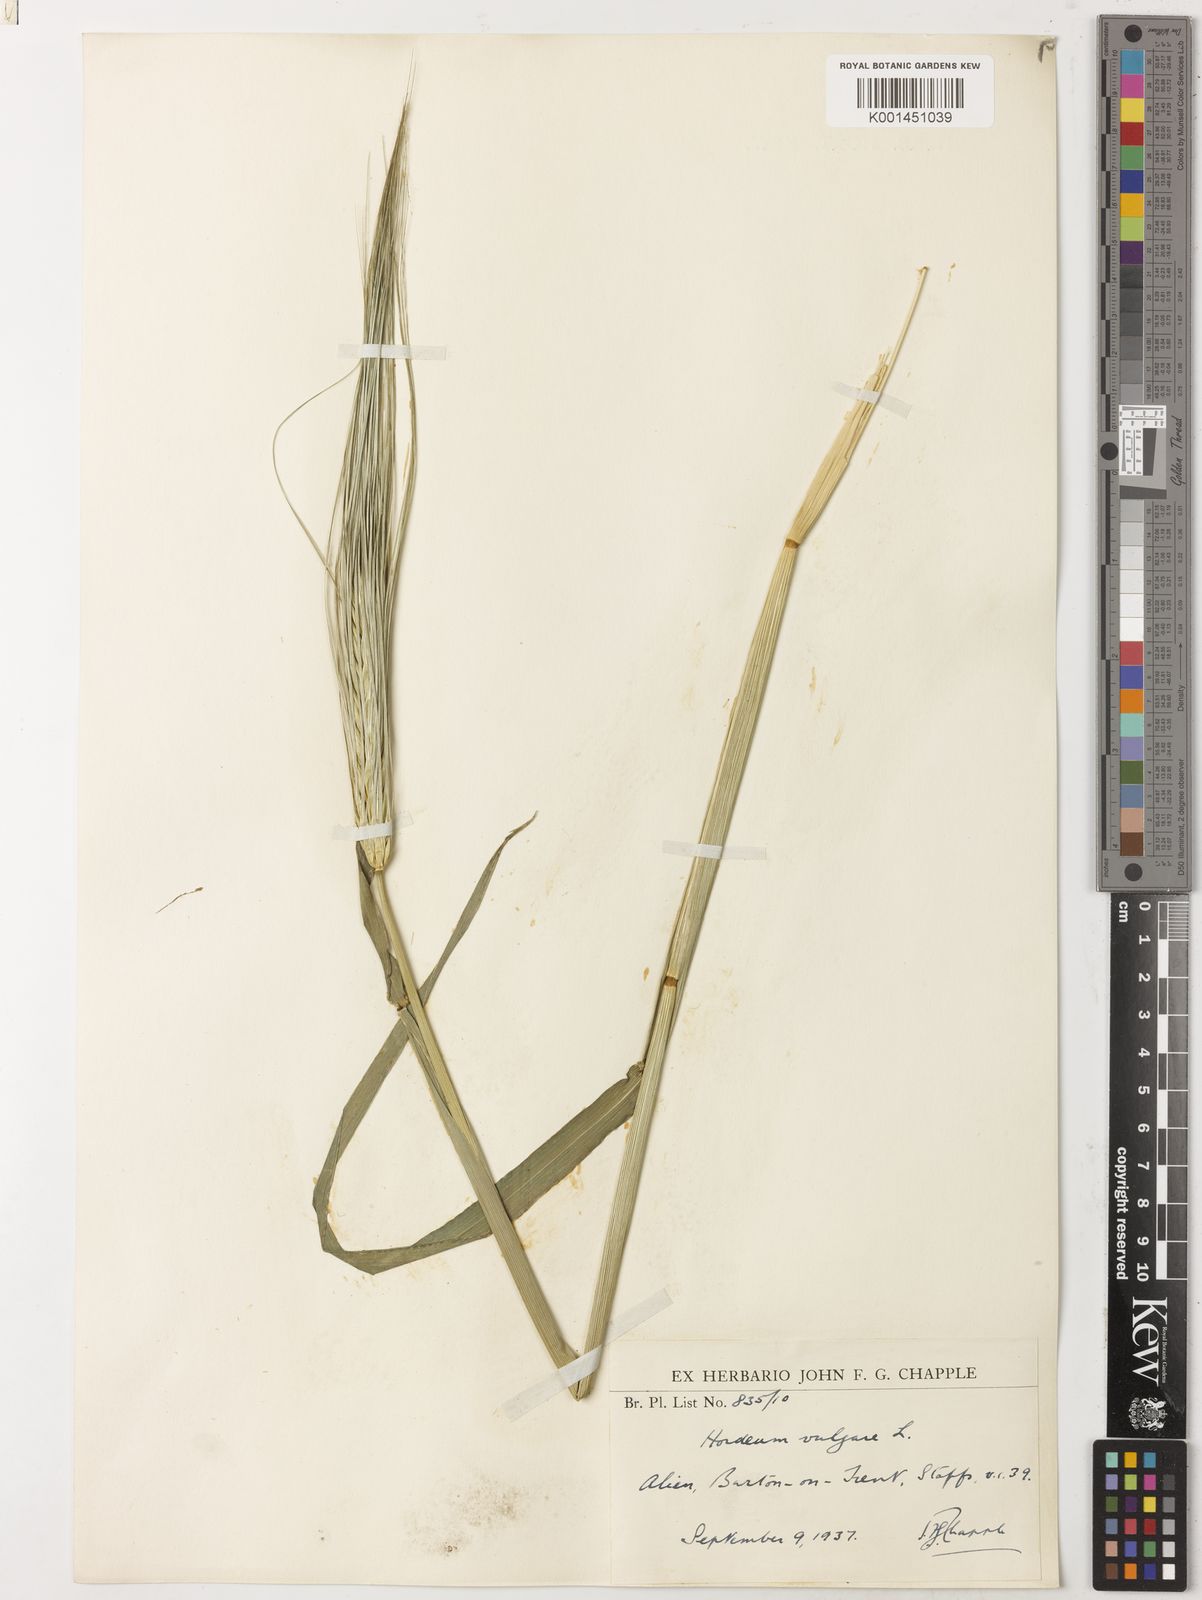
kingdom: Plantae
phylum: Tracheophyta
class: Liliopsida
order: Poales
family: Poaceae
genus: Hordeum
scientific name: Hordeum vulgare
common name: Common barley
